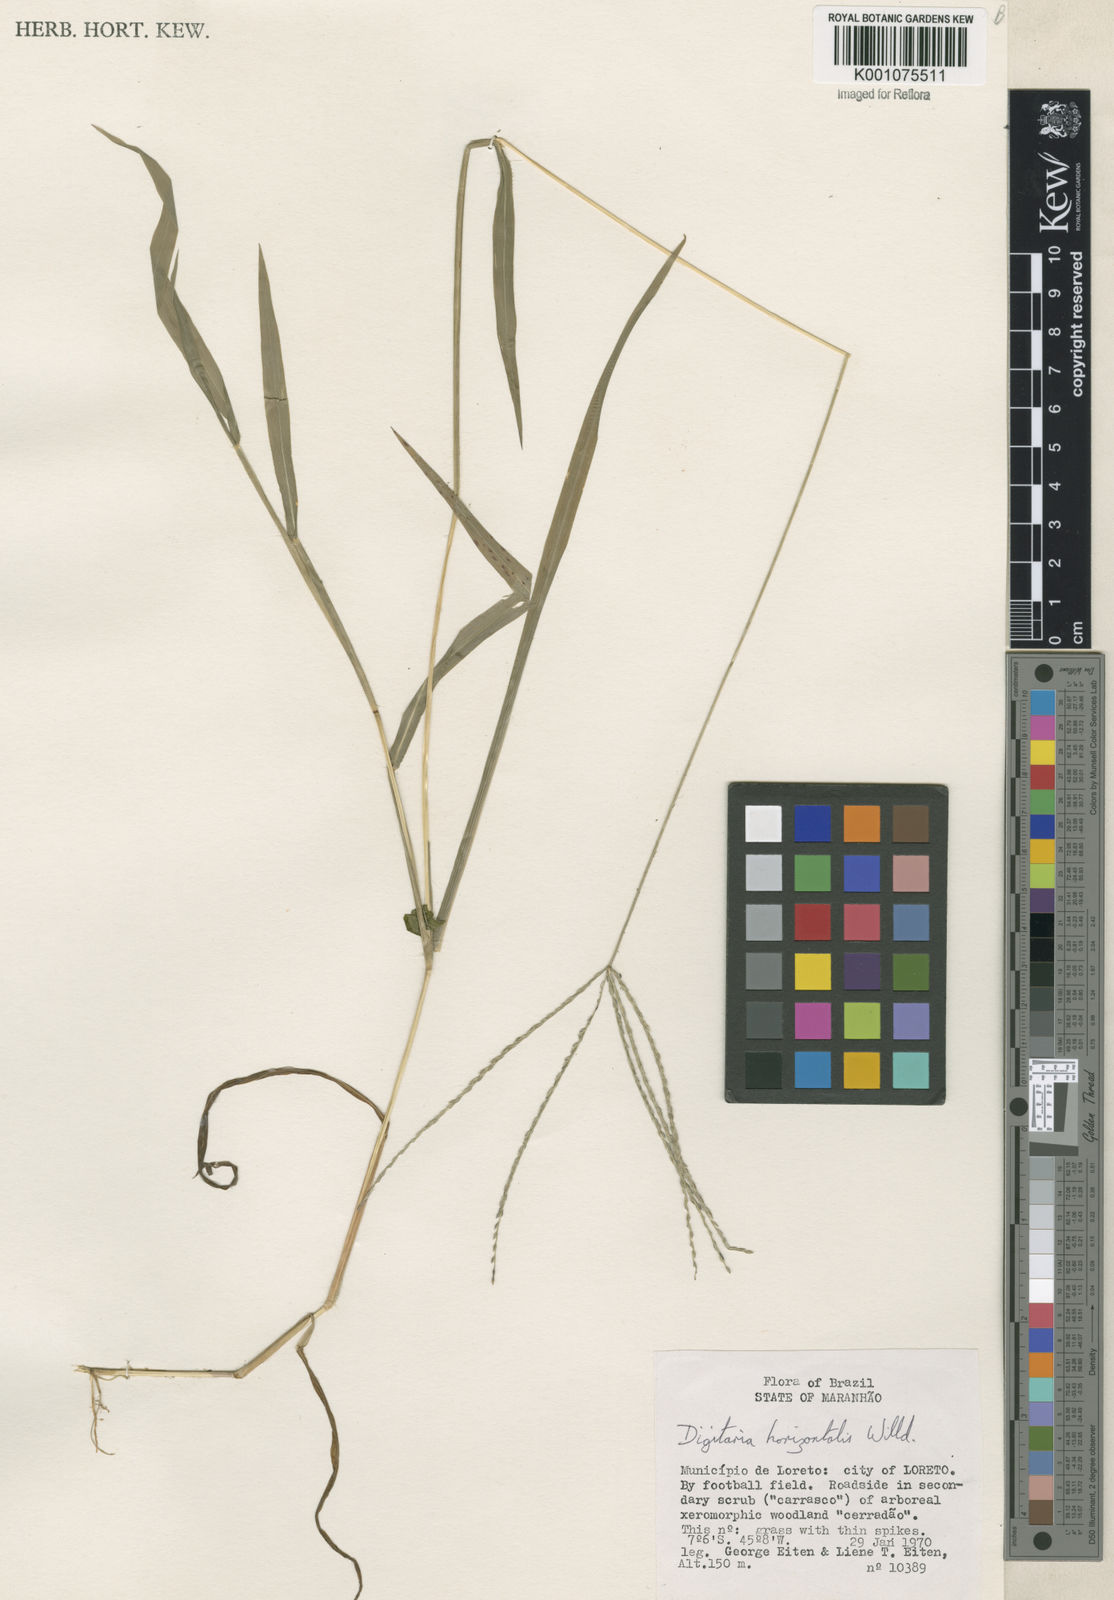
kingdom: Plantae
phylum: Tracheophyta
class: Liliopsida
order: Poales
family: Poaceae
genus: Digitaria
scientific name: Digitaria horizontalis
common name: Jamaican crabgrass
